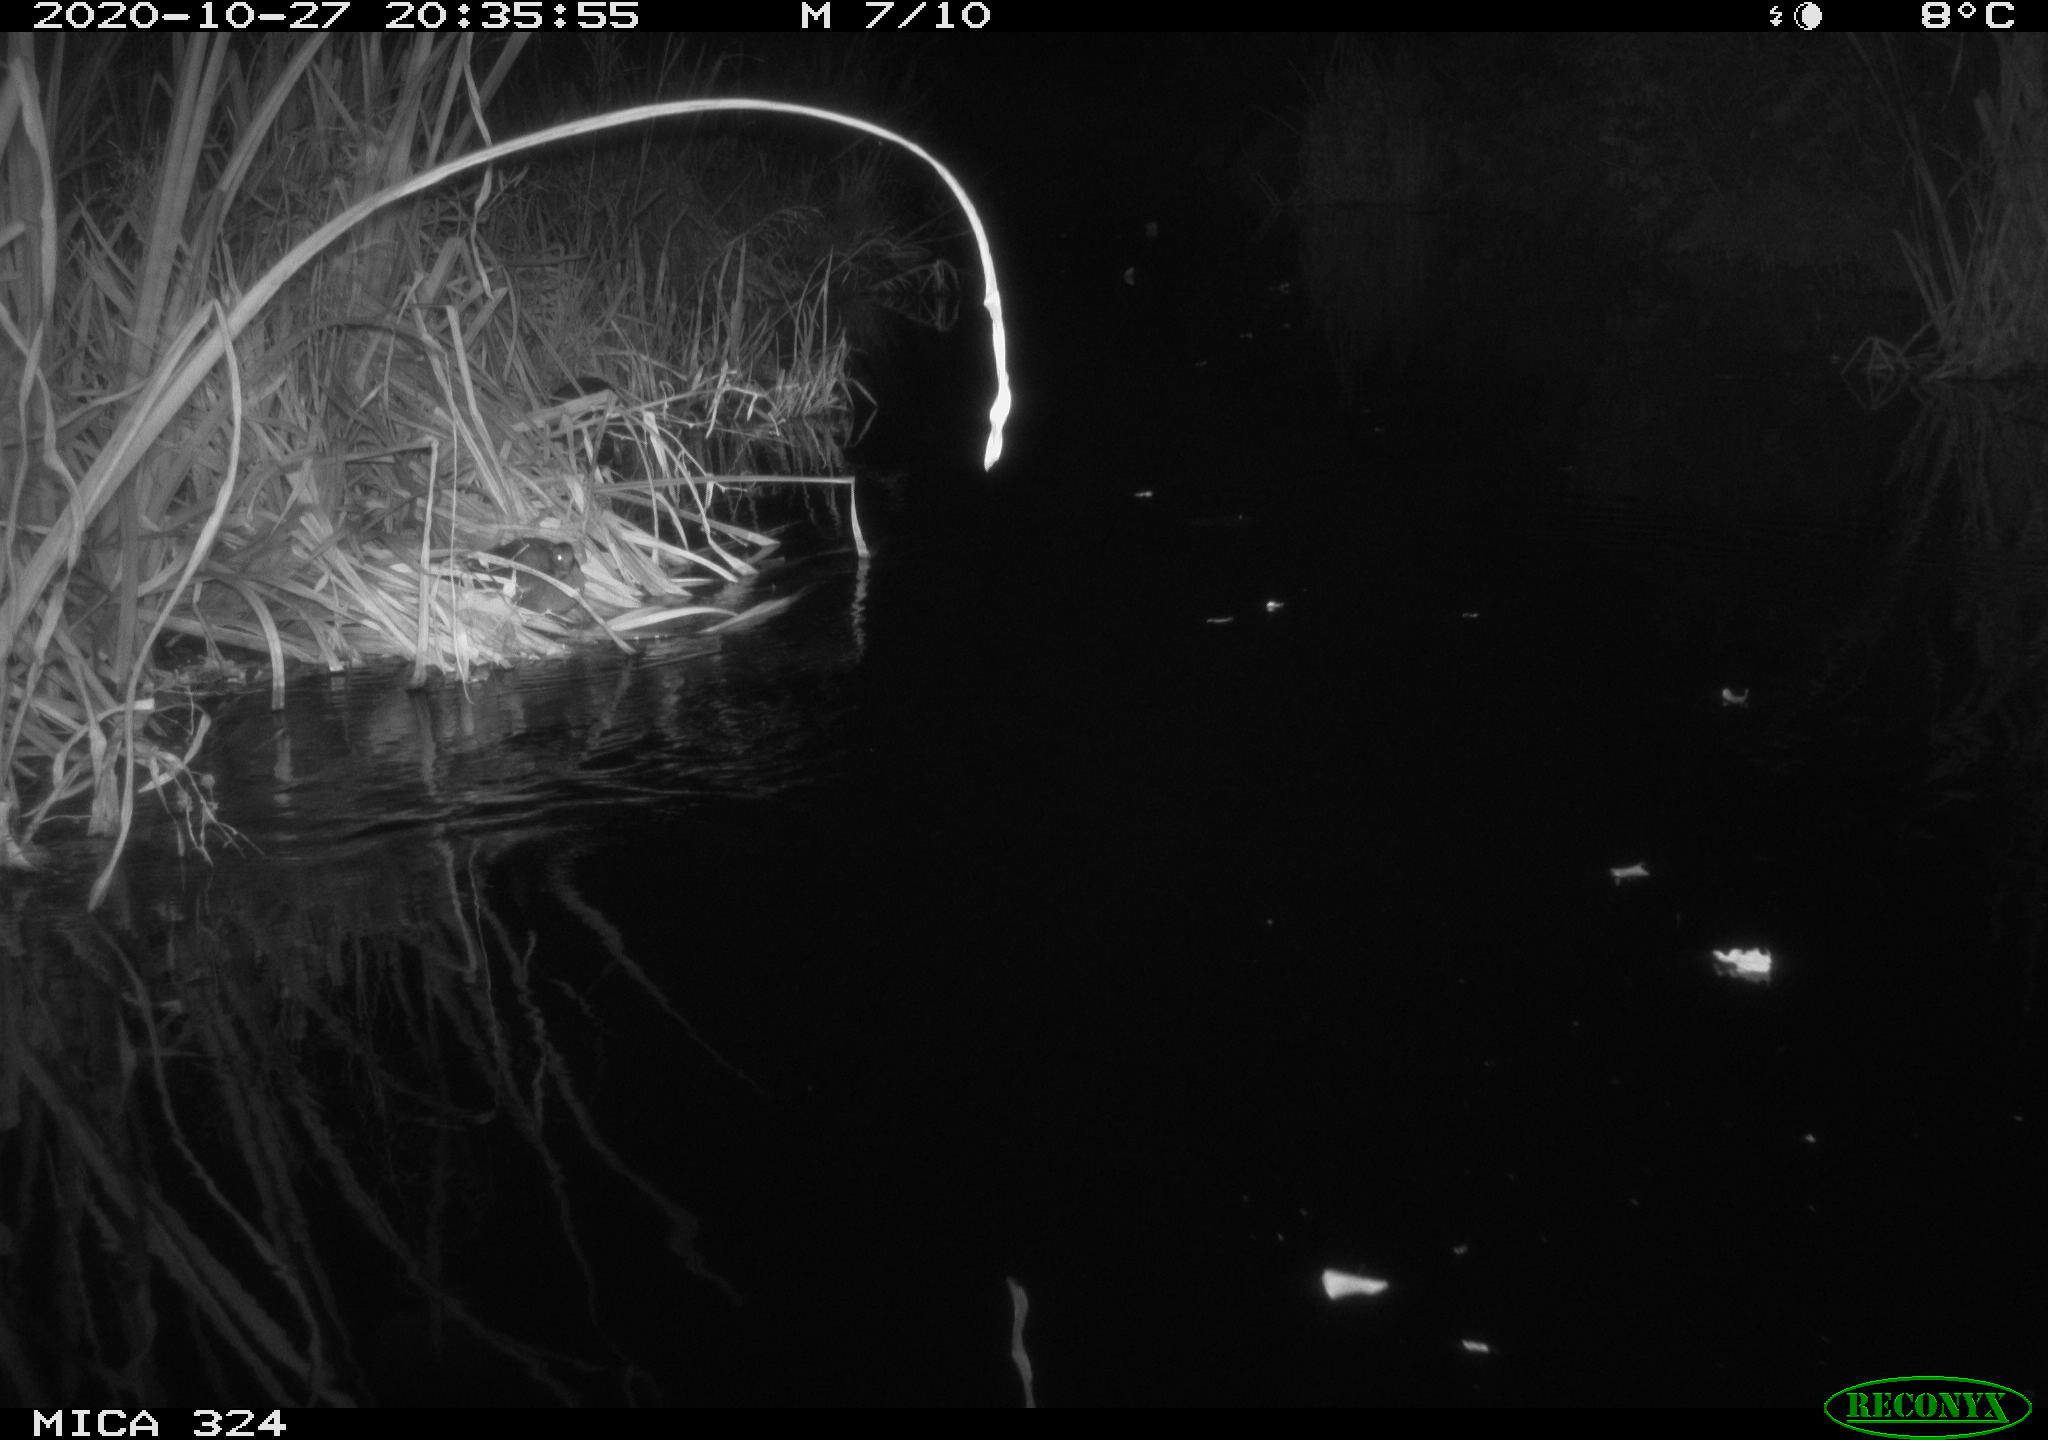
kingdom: Animalia
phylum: Chordata
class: Mammalia
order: Rodentia
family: Muridae
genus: Rattus
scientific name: Rattus norvegicus
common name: Brown rat
